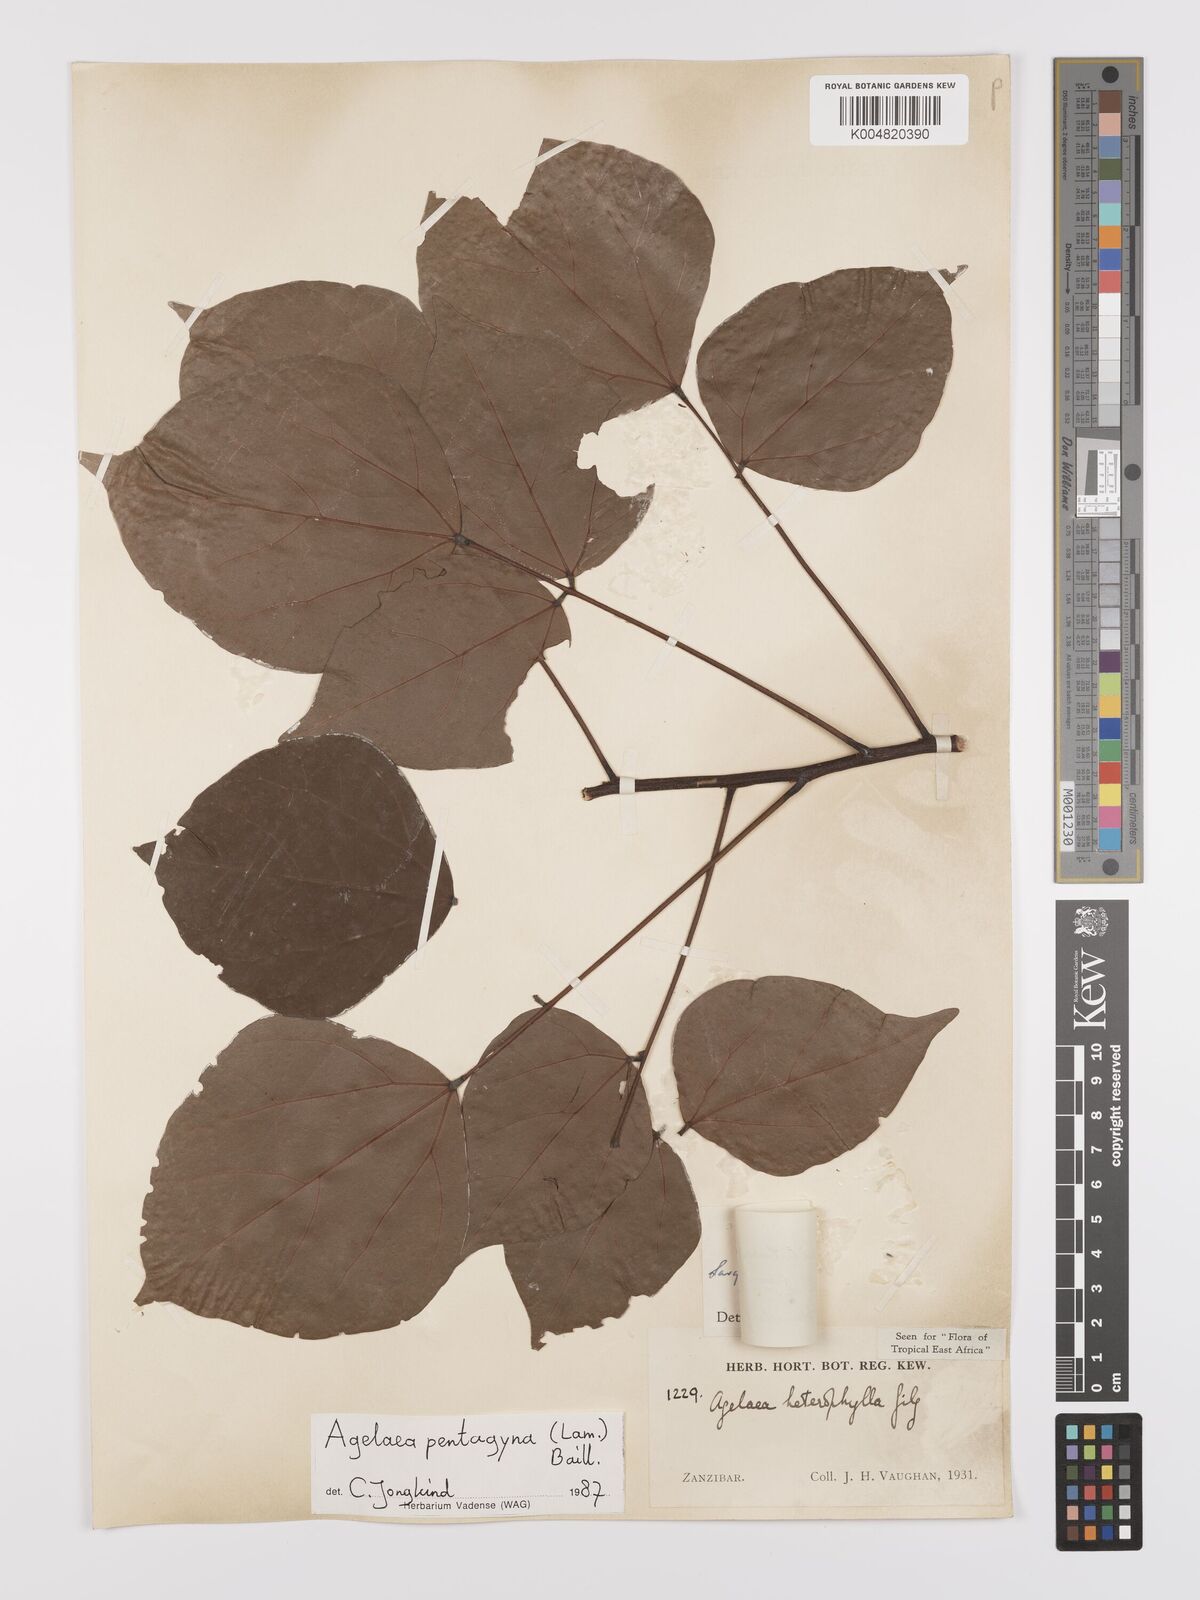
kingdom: Plantae
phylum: Tracheophyta
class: Magnoliopsida
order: Oxalidales
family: Connaraceae
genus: Agelaea
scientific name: Agelaea pentagyna
